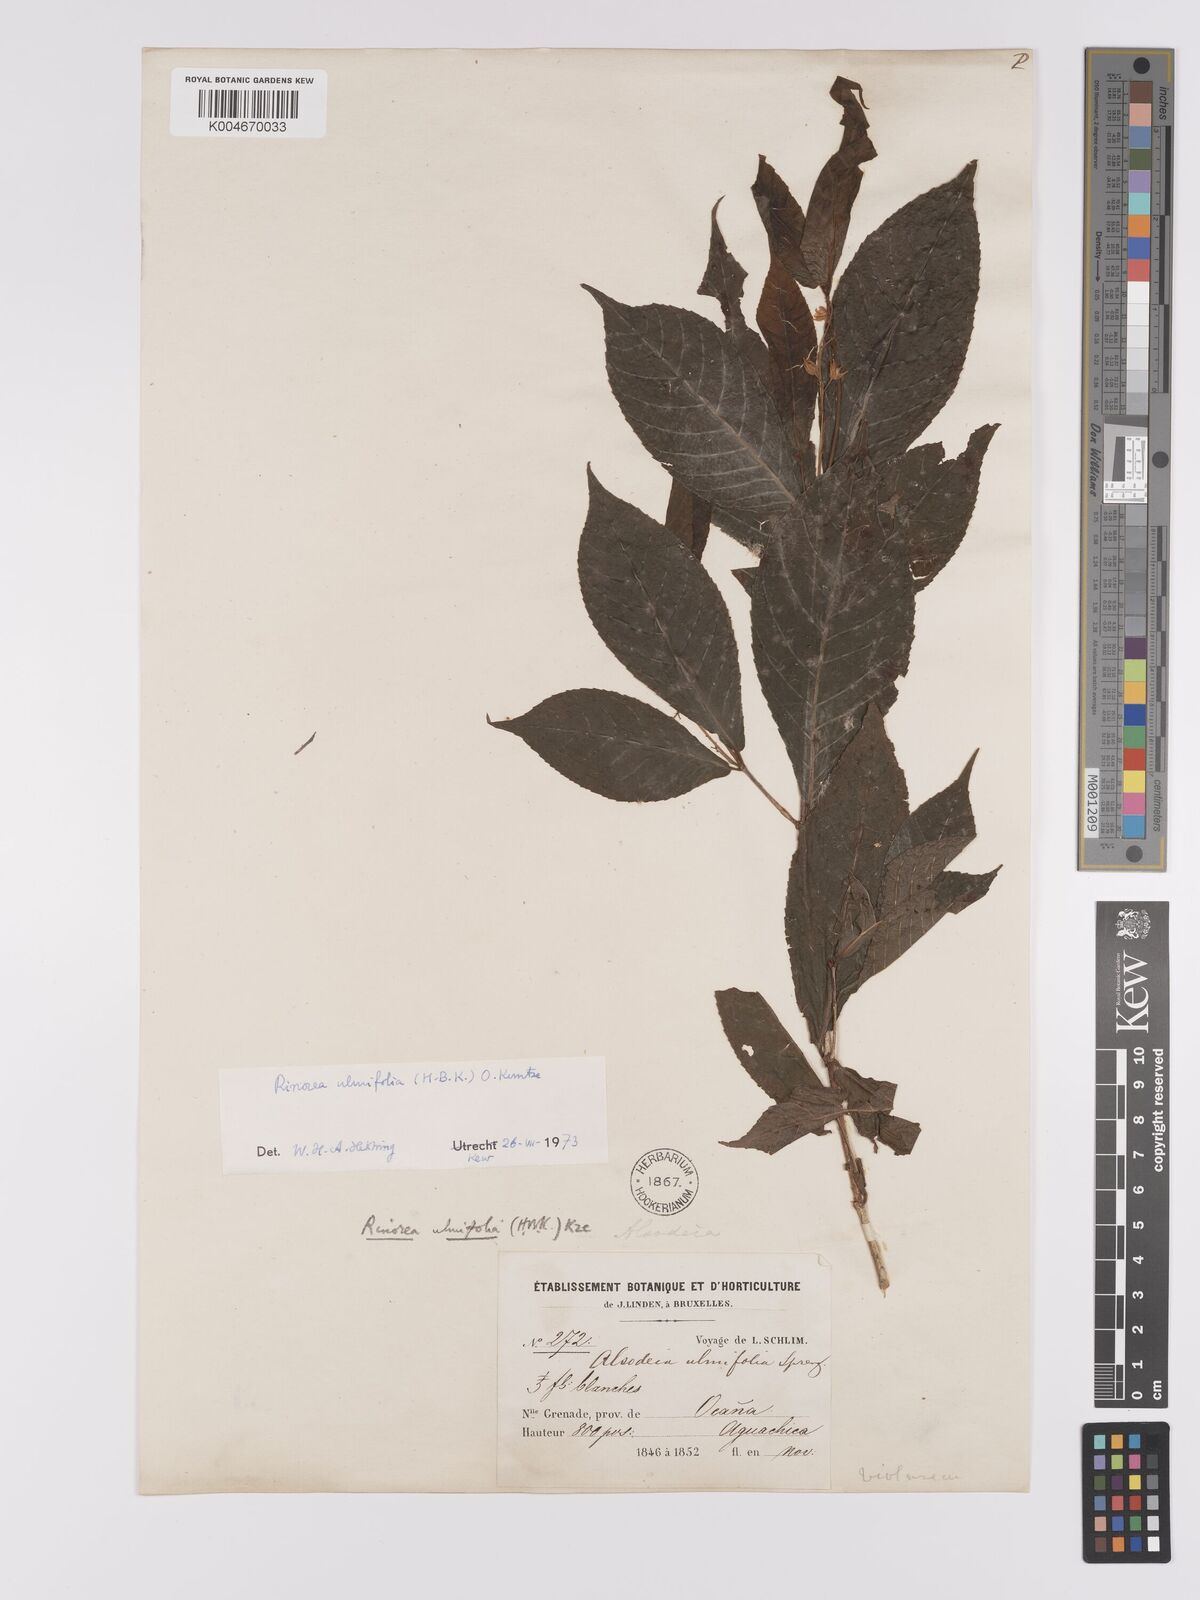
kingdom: Plantae
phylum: Tracheophyta
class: Magnoliopsida
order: Malpighiales
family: Violaceae
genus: Rinorea
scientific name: Rinorea ulmifolia
